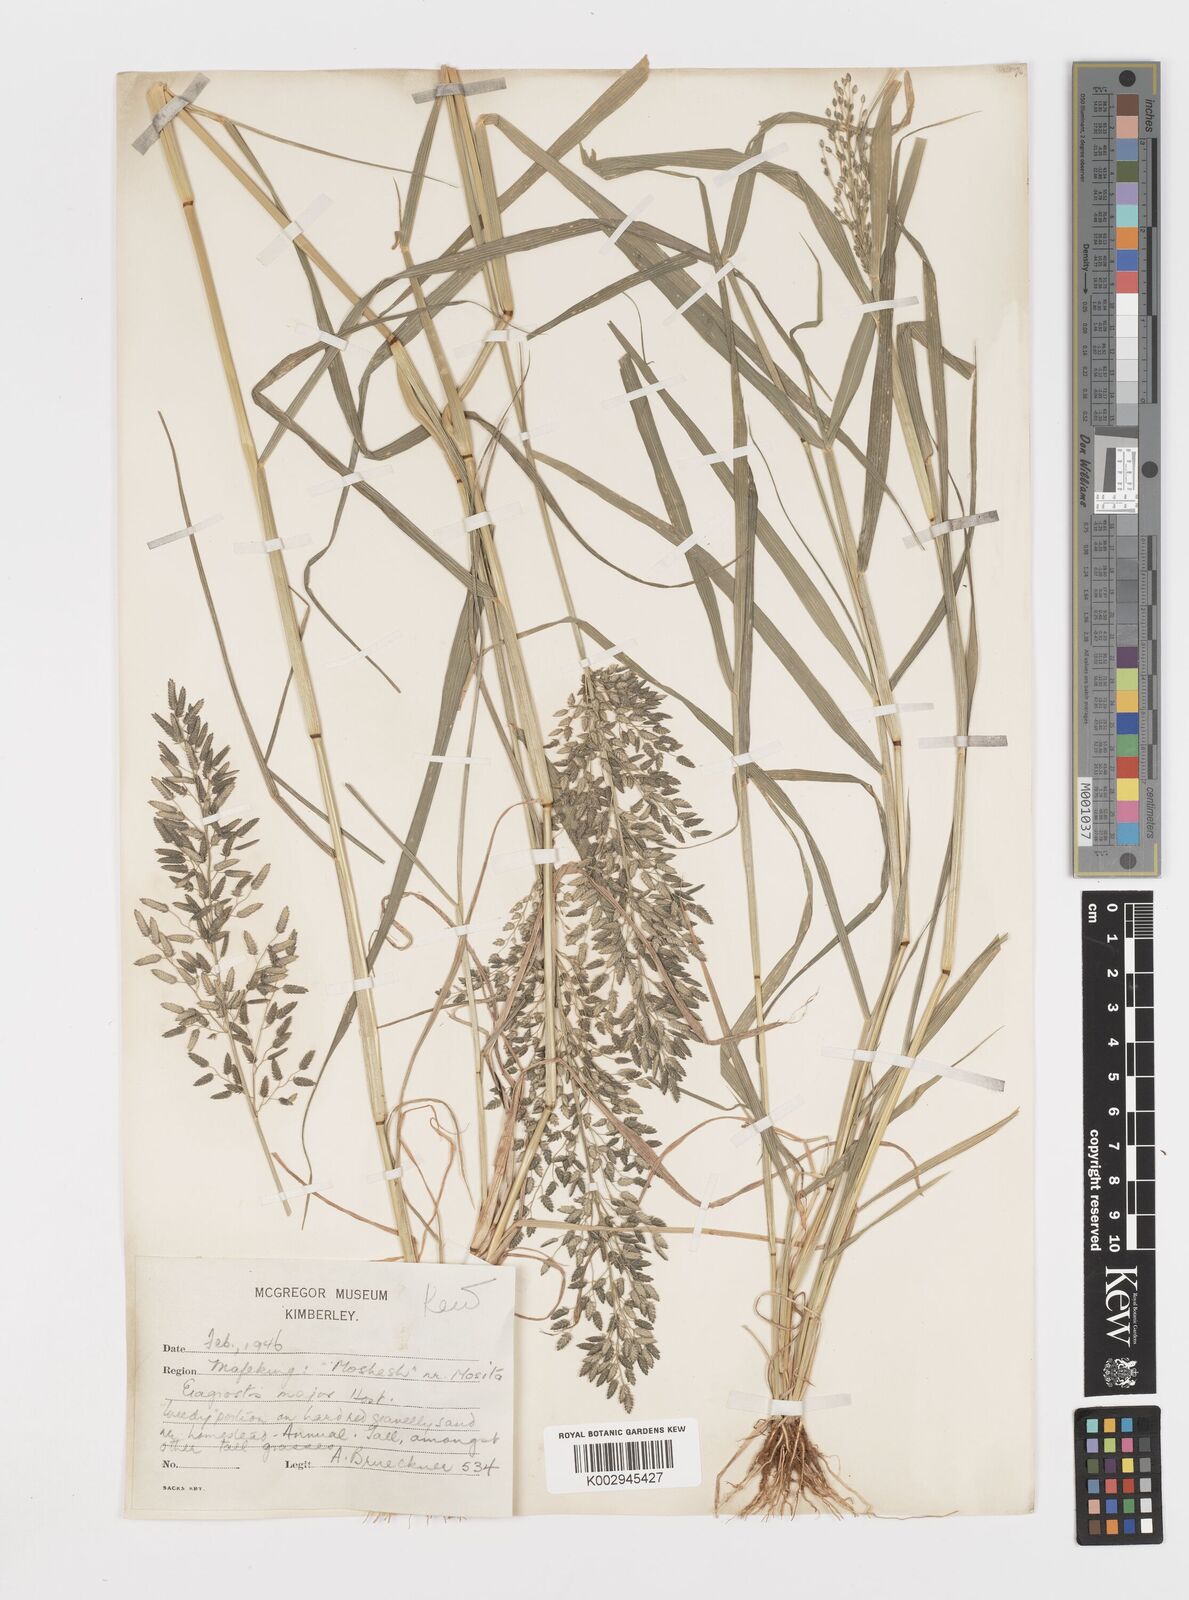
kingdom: Plantae
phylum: Tracheophyta
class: Liliopsida
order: Poales
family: Poaceae
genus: Eragrostis
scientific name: Eragrostis cilianensis
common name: Stinkgrass
